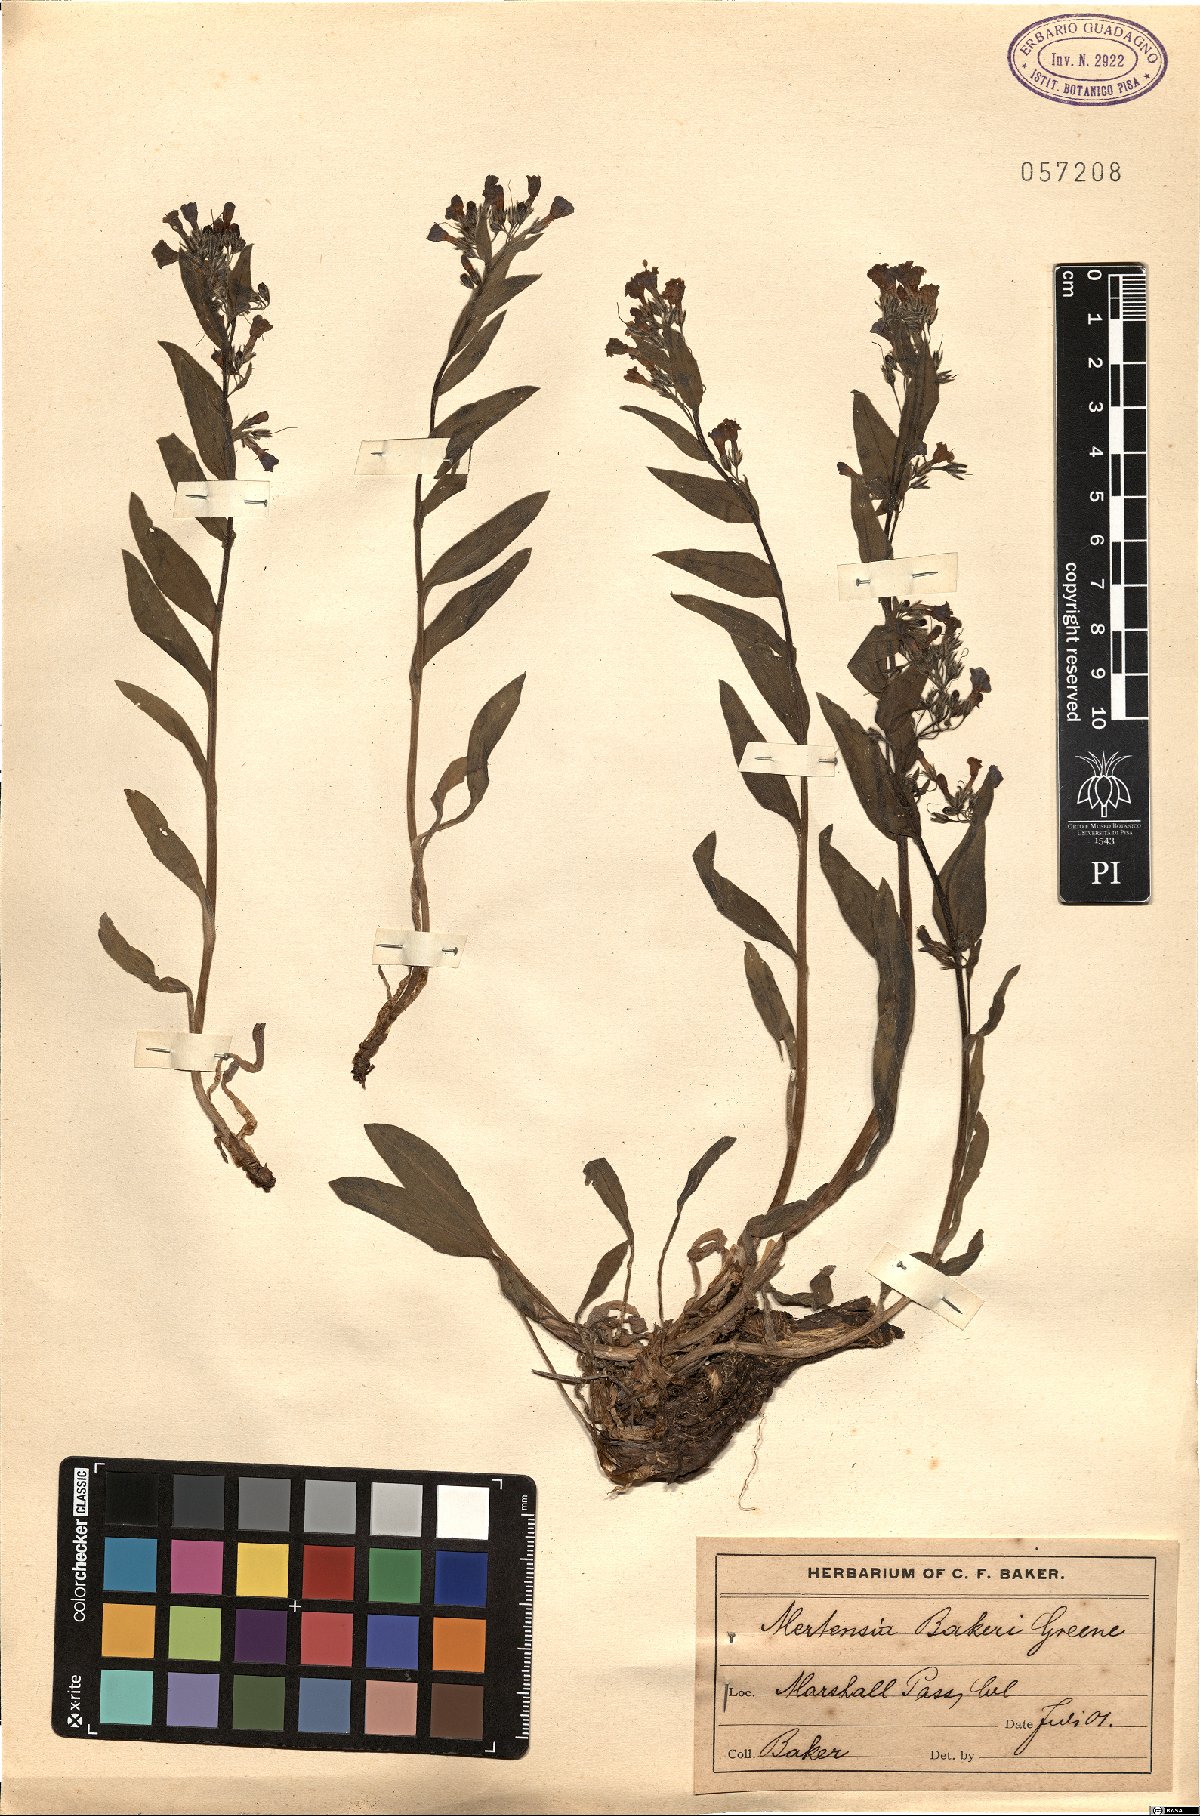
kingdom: Plantae
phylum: Tracheophyta
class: Magnoliopsida
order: Boraginales
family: Boraginaceae
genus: Mertensia
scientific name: Mertensia bakeri
